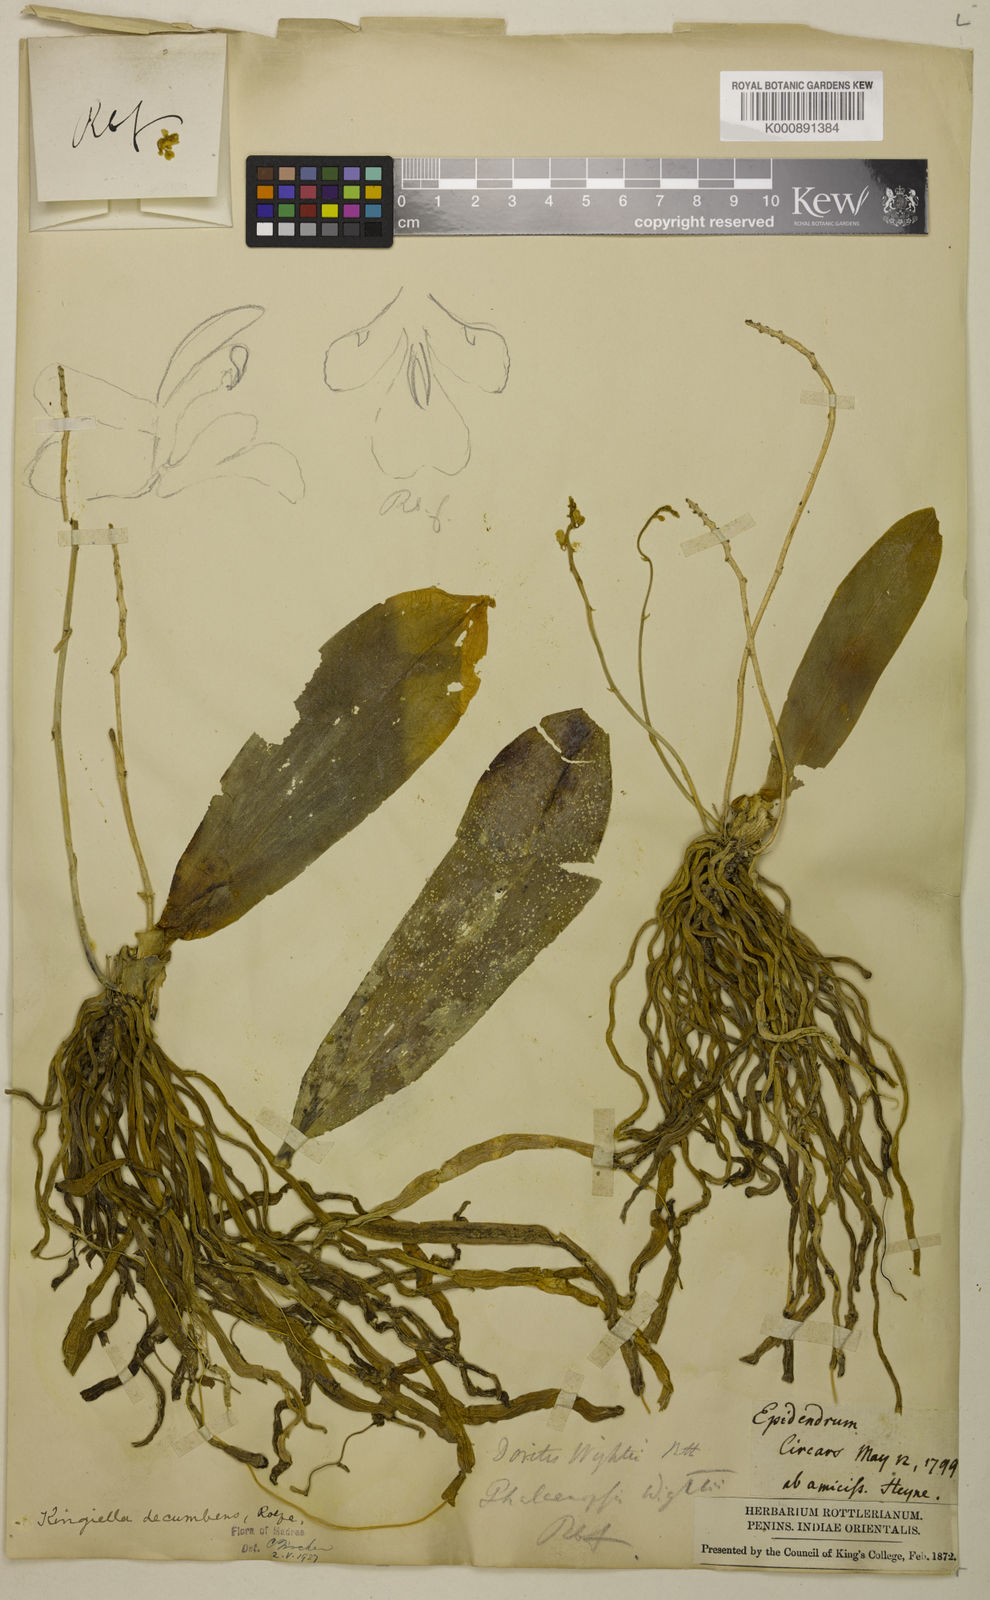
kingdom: Plantae
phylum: Tracheophyta
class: Liliopsida
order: Asparagales
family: Orchidaceae
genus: Phalaenopsis
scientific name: Phalaenopsis parishii
